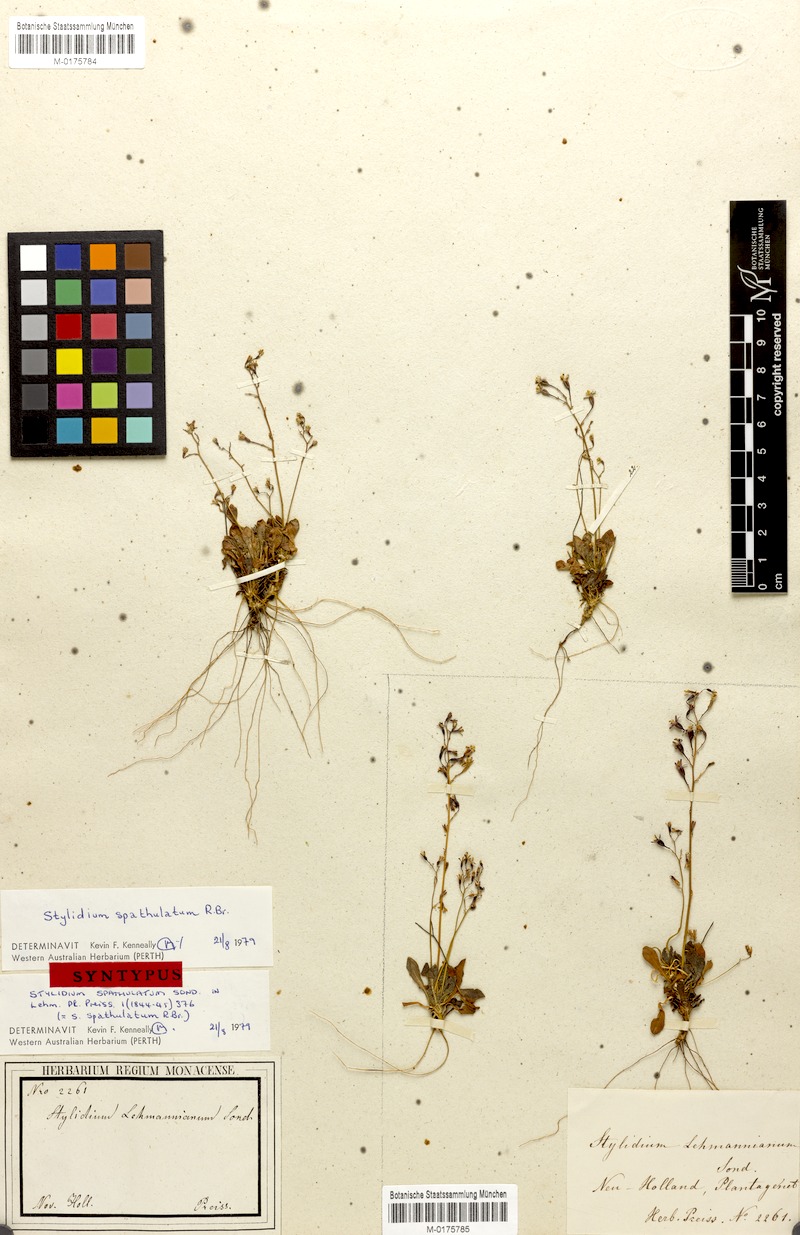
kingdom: Plantae
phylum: Tracheophyta
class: Magnoliopsida
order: Asterales
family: Stylidiaceae
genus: Stylidium
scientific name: Stylidium spathulatum
